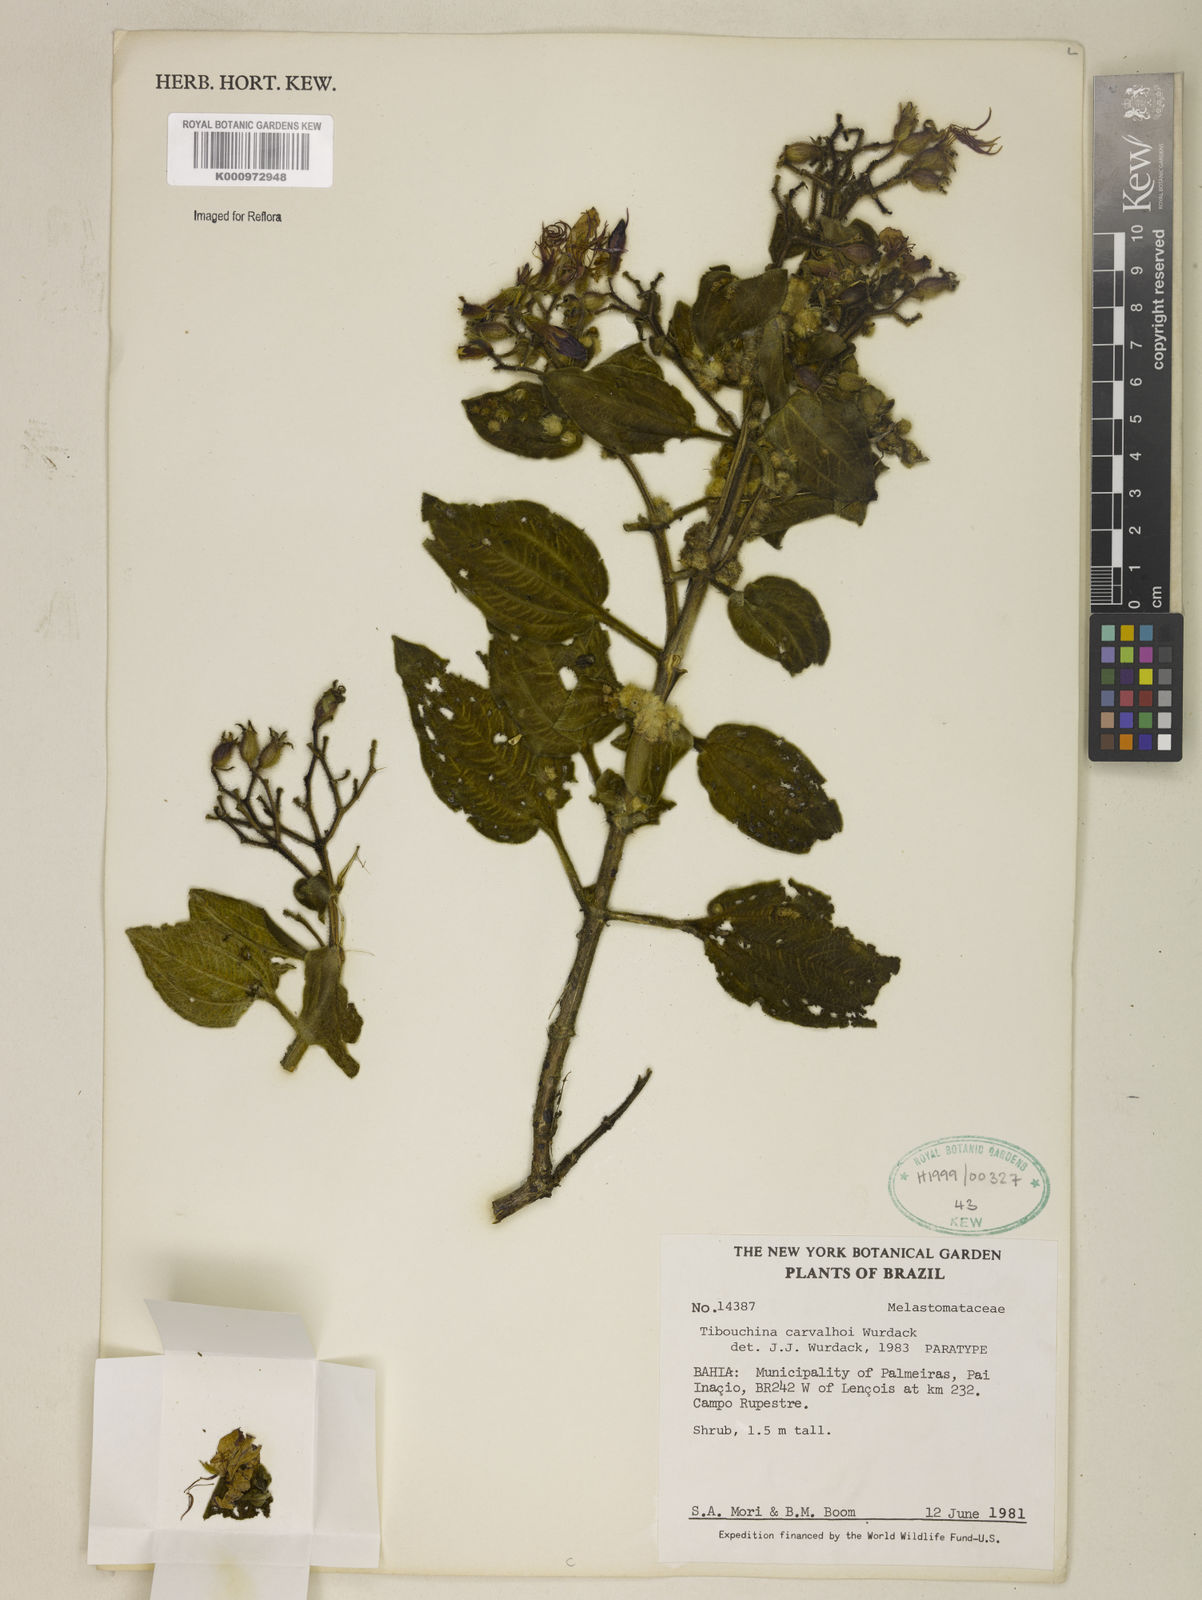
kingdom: Plantae
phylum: Tracheophyta
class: Magnoliopsida
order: Myrtales
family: Melastomataceae
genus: Pleroma
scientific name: Pleroma carvalhoi
